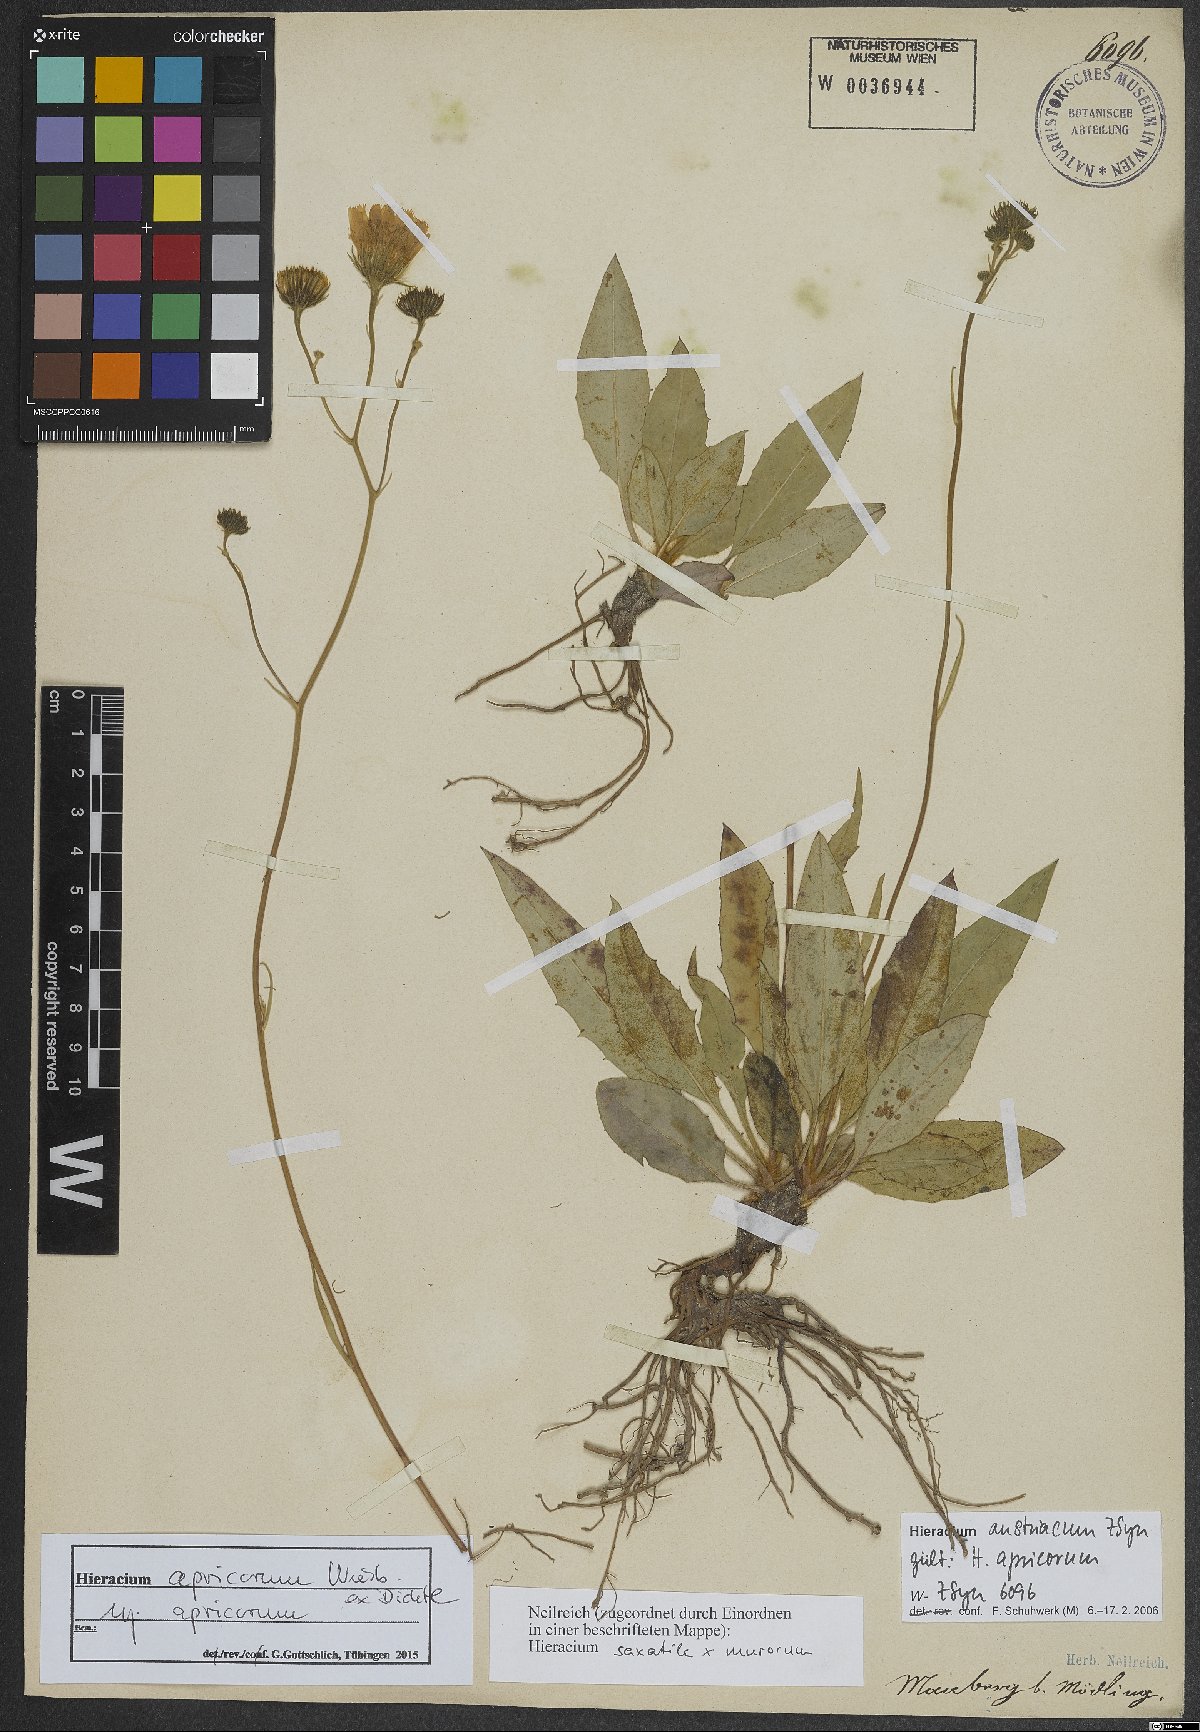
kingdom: Plantae
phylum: Tracheophyta
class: Magnoliopsida
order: Asterales
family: Asteraceae
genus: Hieracium
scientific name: Hieracium apricorum
